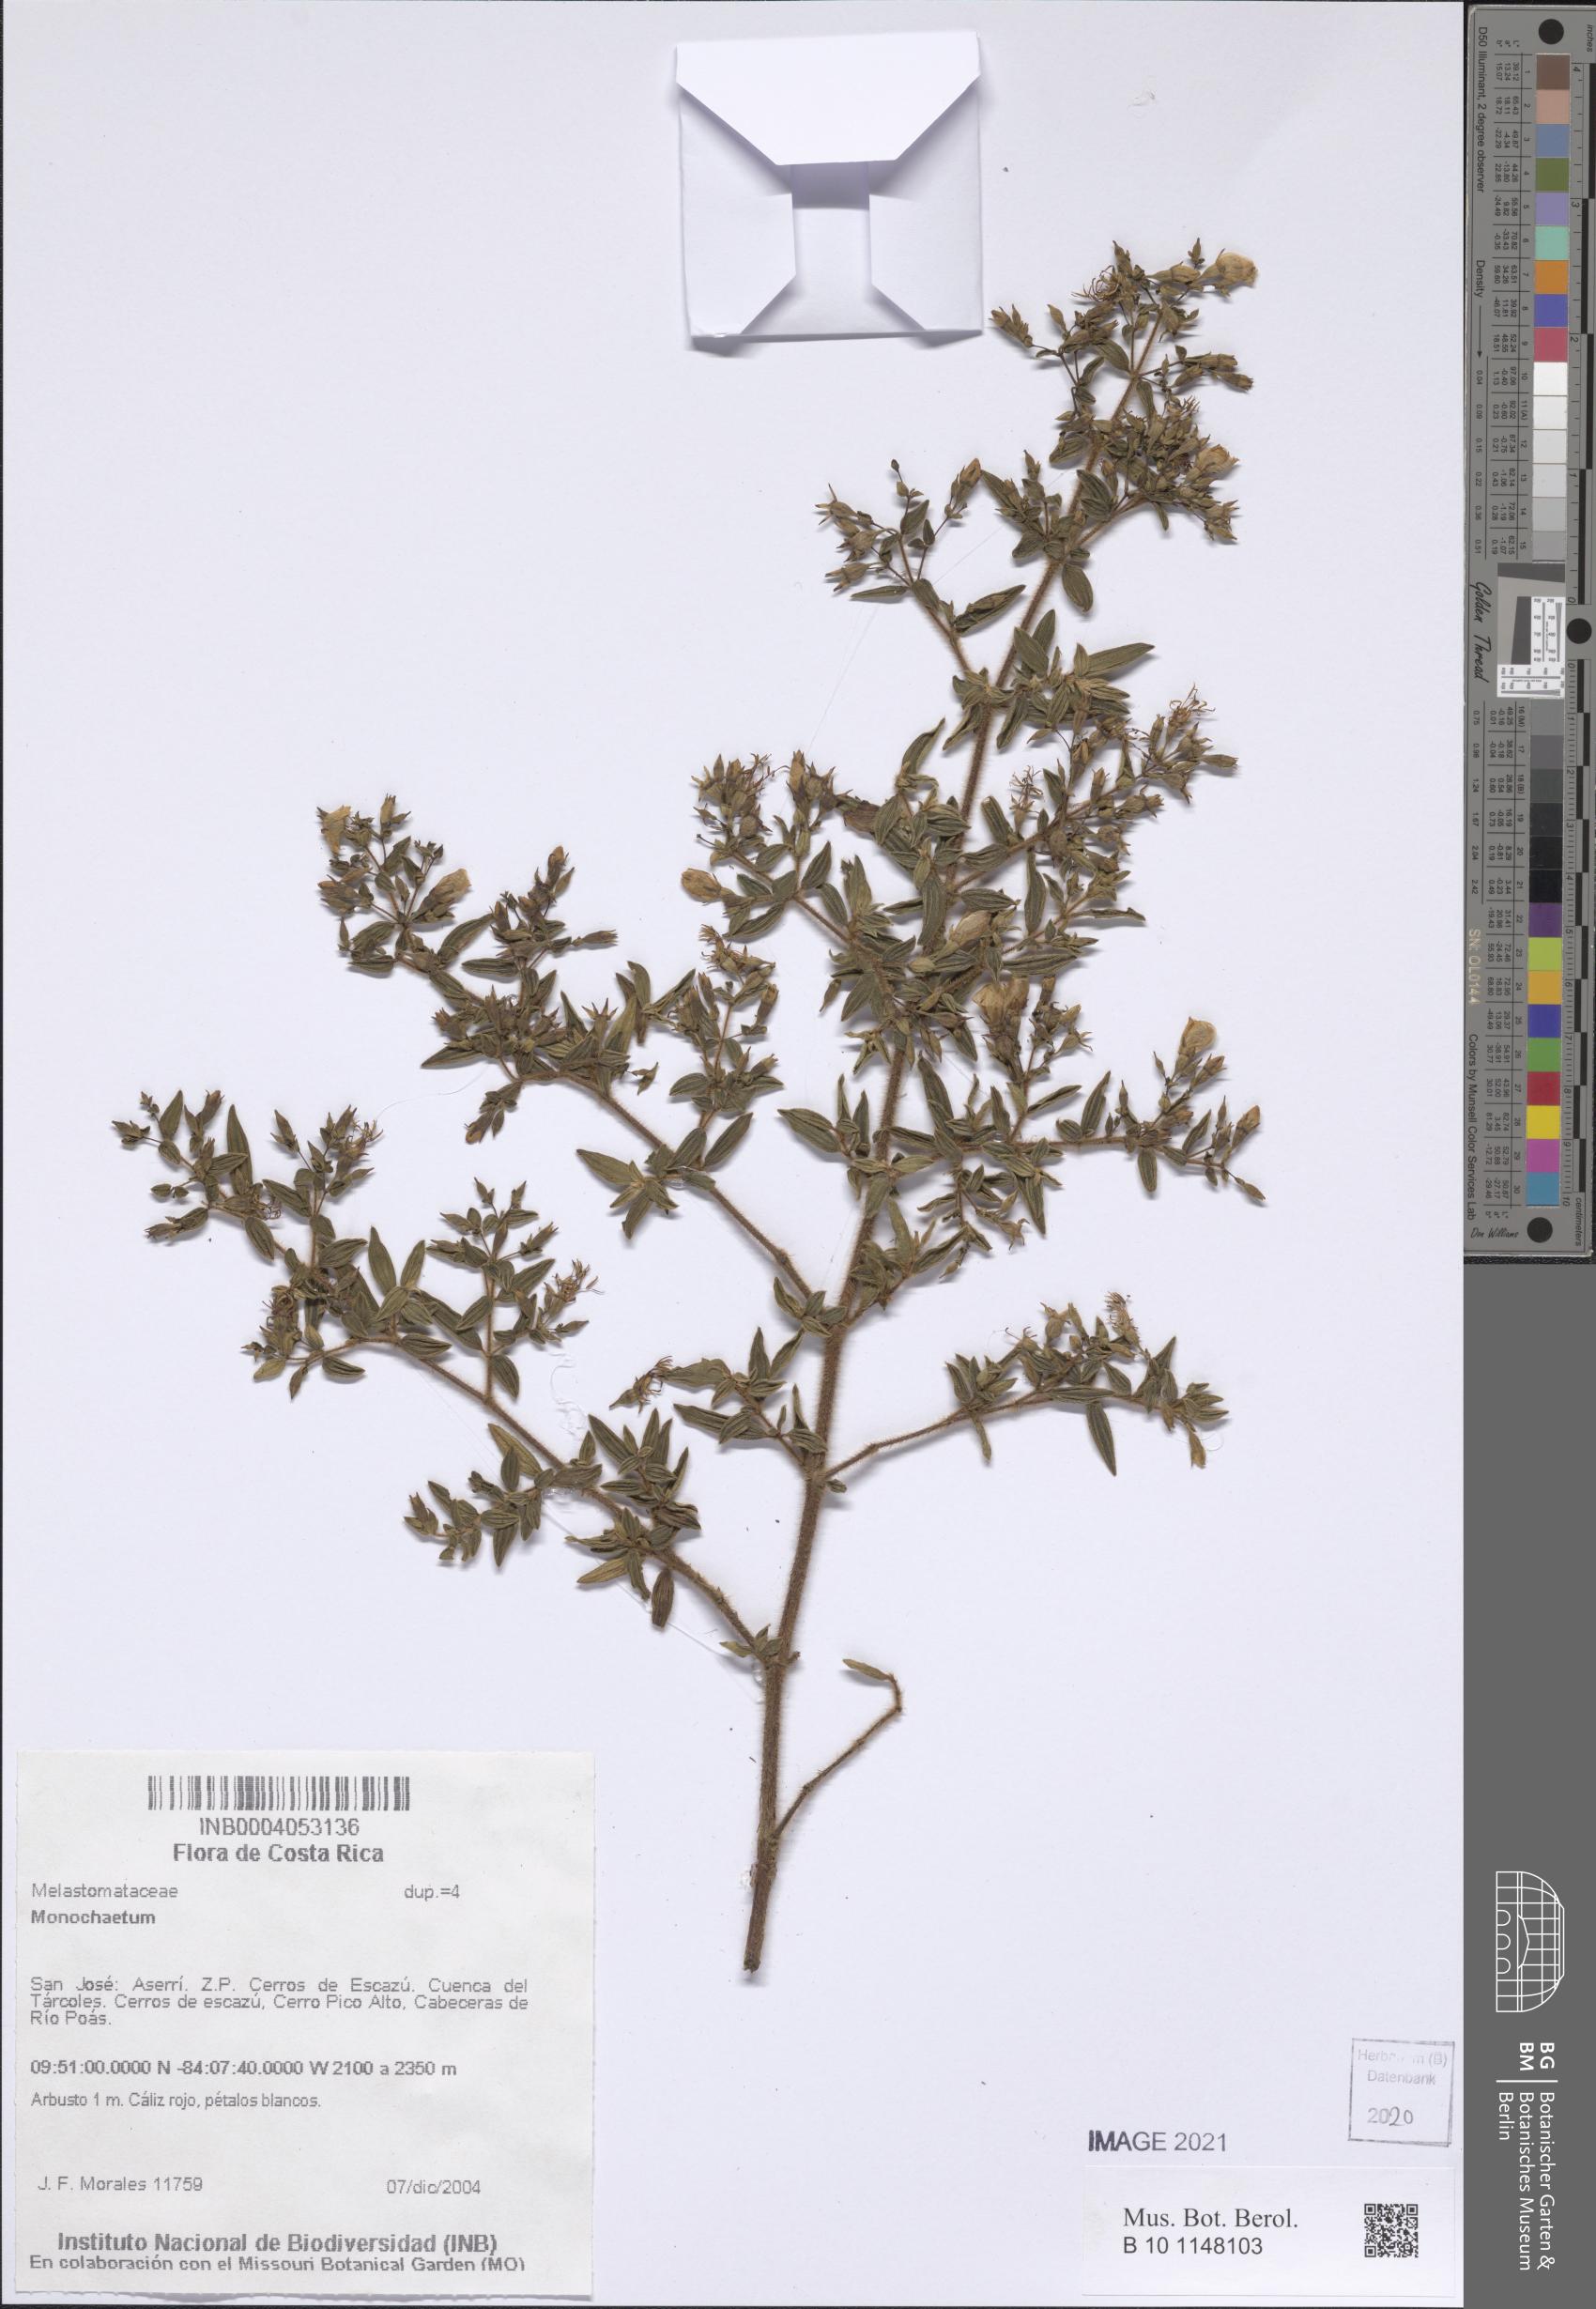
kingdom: Plantae
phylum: Tracheophyta
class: Magnoliopsida
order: Myrtales
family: Melastomataceae
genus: Monochaetum
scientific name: Monochaetum
